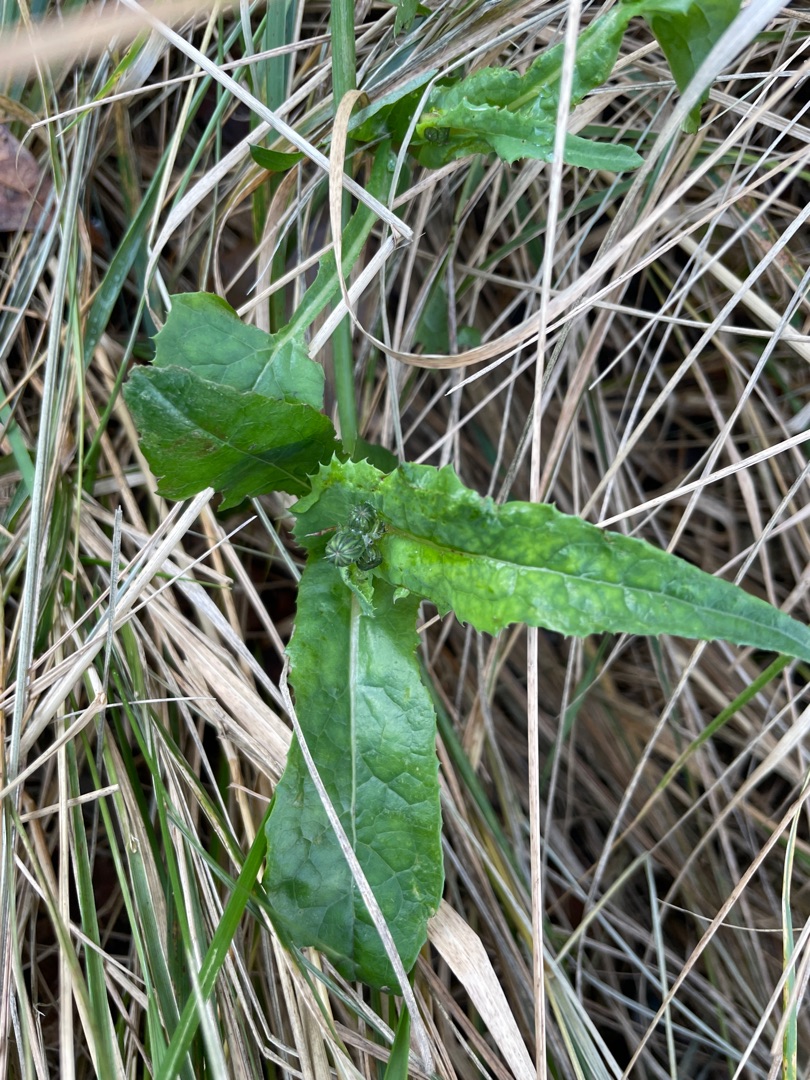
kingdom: Plantae
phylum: Tracheophyta
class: Magnoliopsida
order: Asterales
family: Asteraceae
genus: Sonchus
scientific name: Sonchus oleraceus
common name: Almindelig svinemælk
